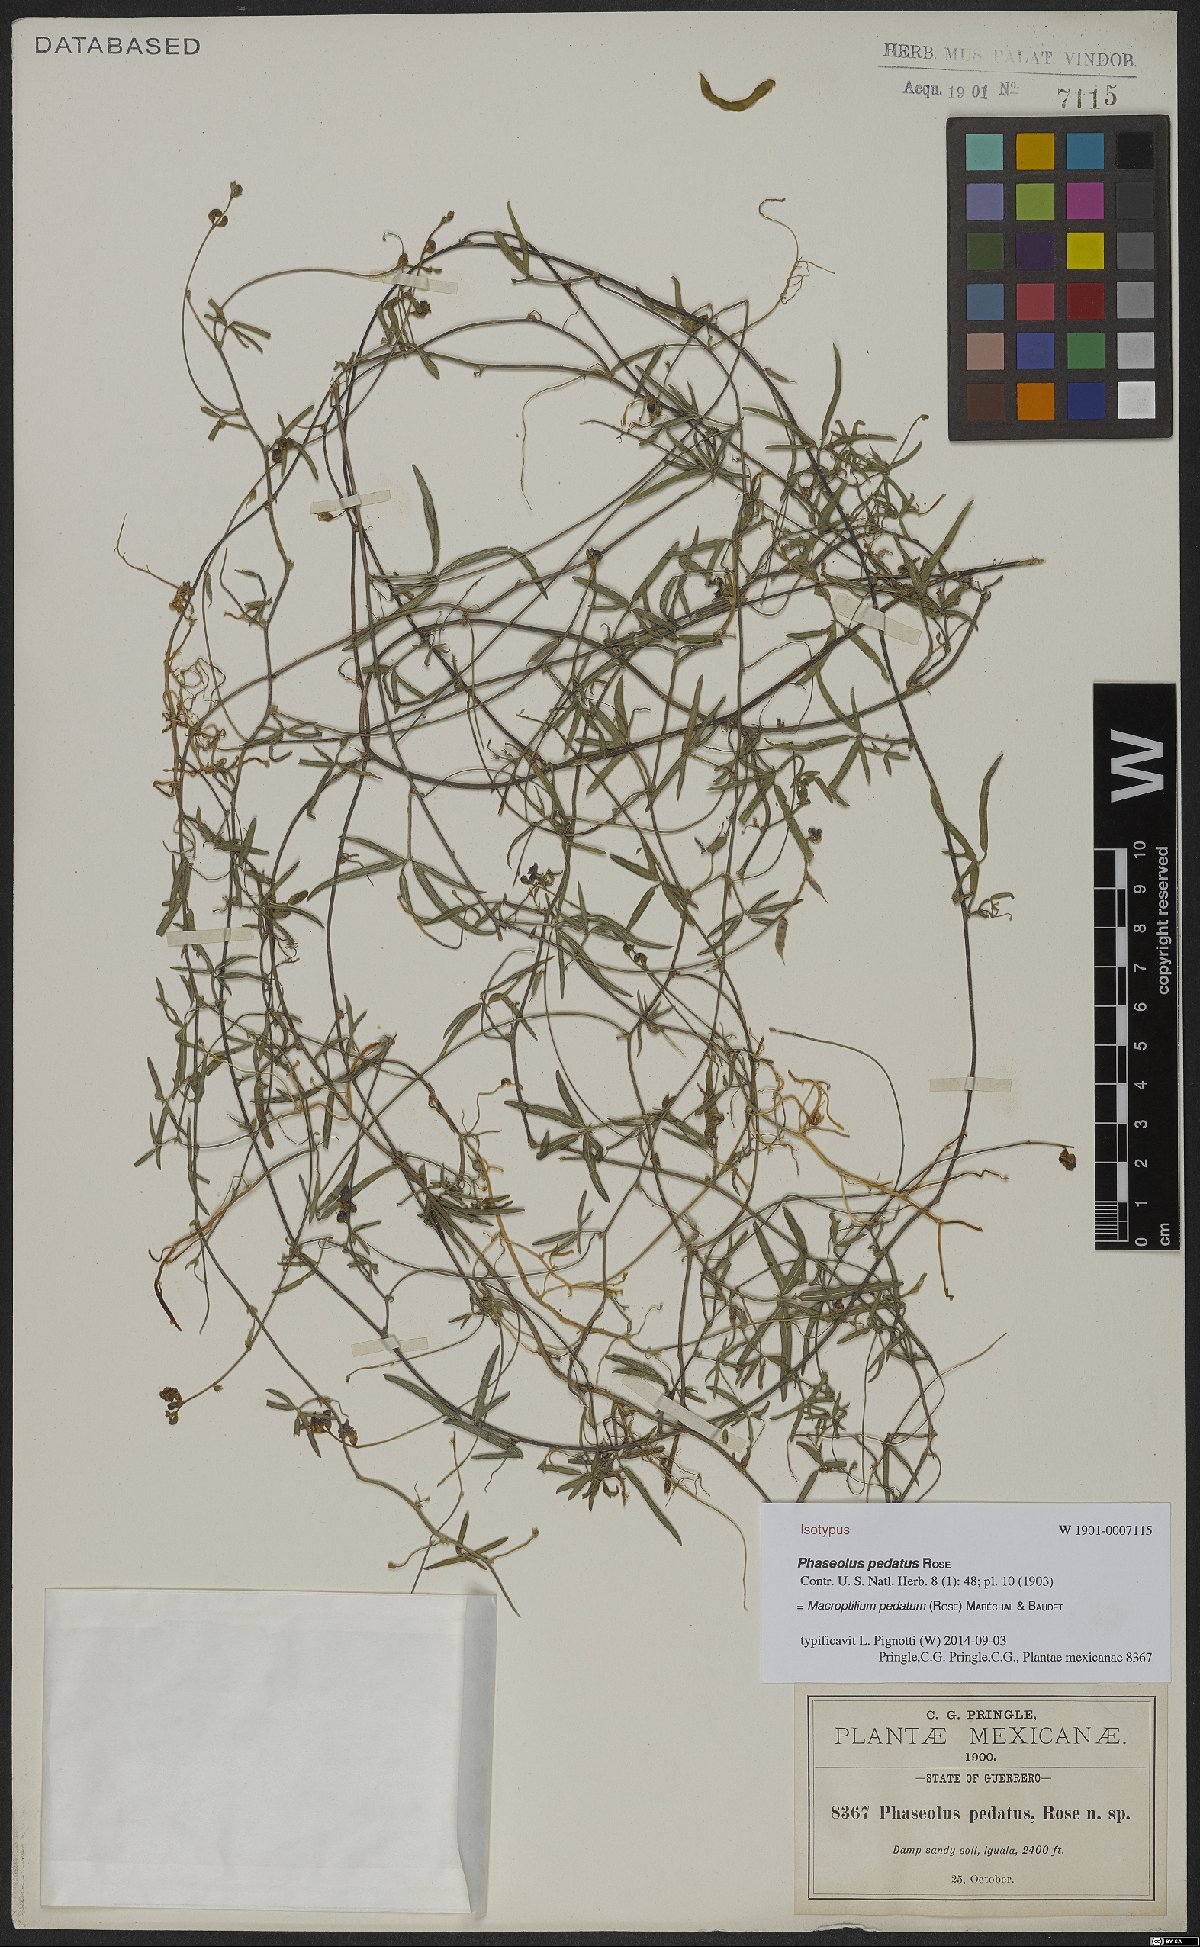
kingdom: Plantae
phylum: Tracheophyta
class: Magnoliopsida
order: Fabales
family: Fabaceae
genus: Macroptilium
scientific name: Macroptilium pedatum
